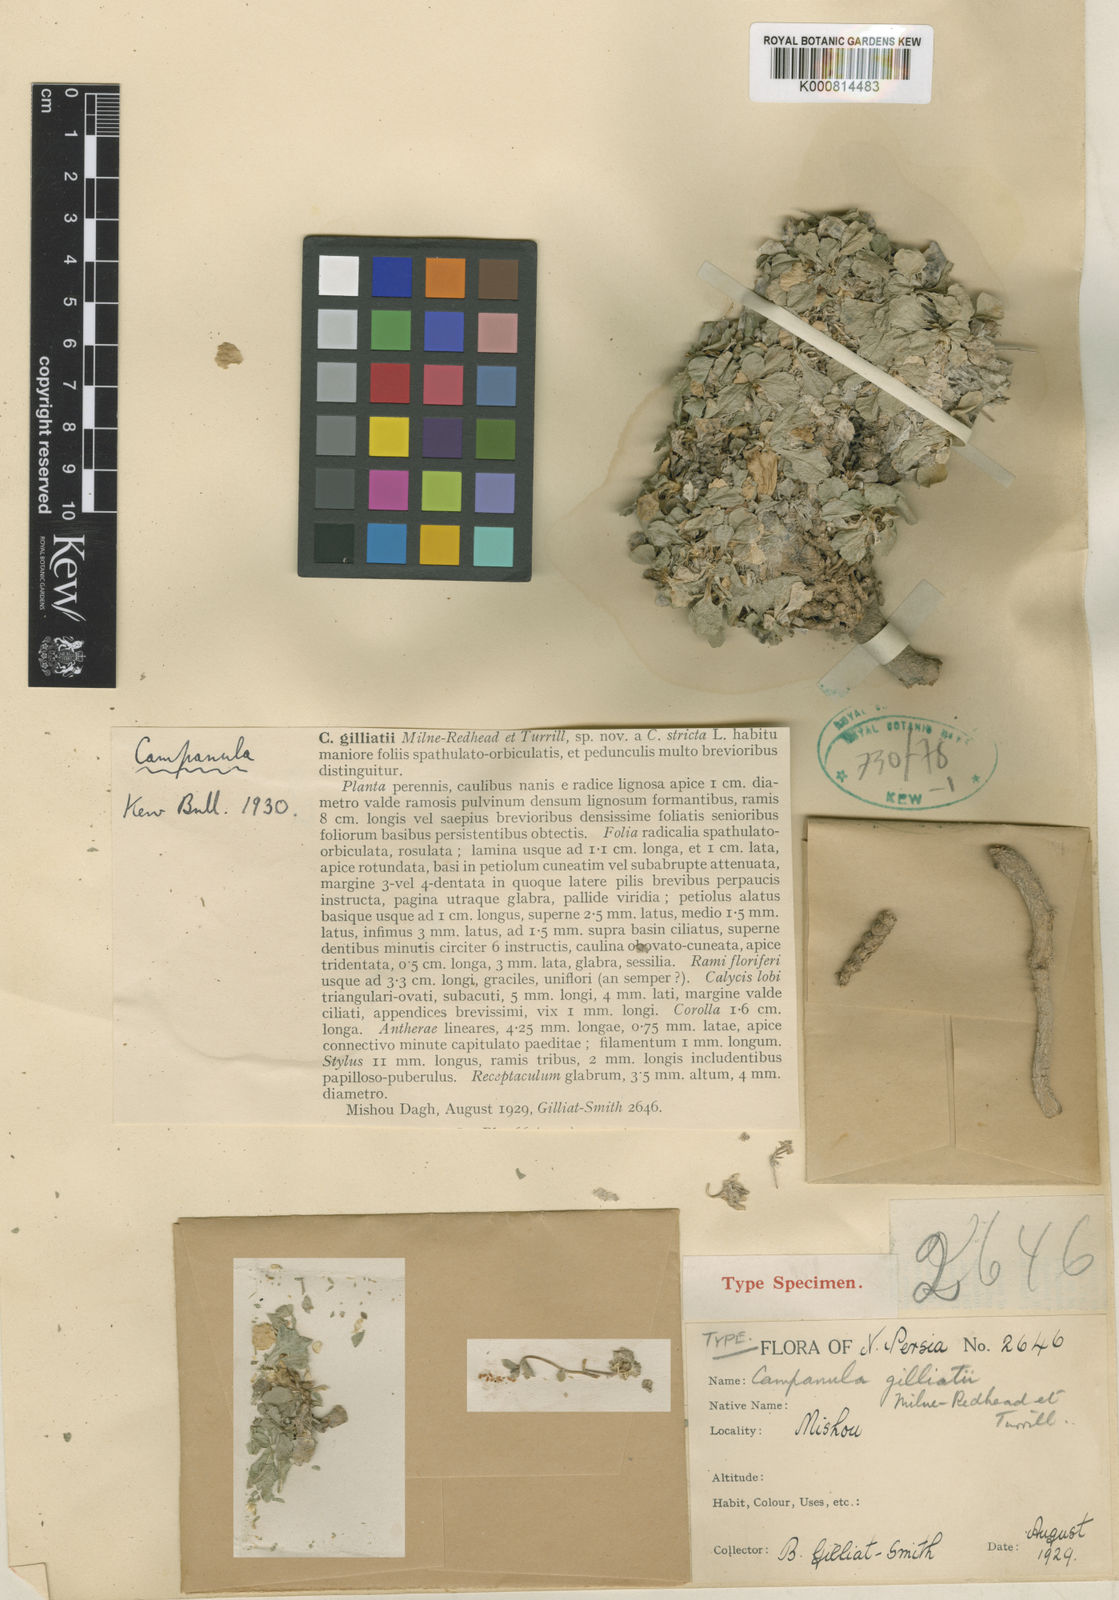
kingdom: Plantae
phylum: Tracheophyta
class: Magnoliopsida
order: Asterales
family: Campanulaceae
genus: Campanula
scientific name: Campanula gilliatii
